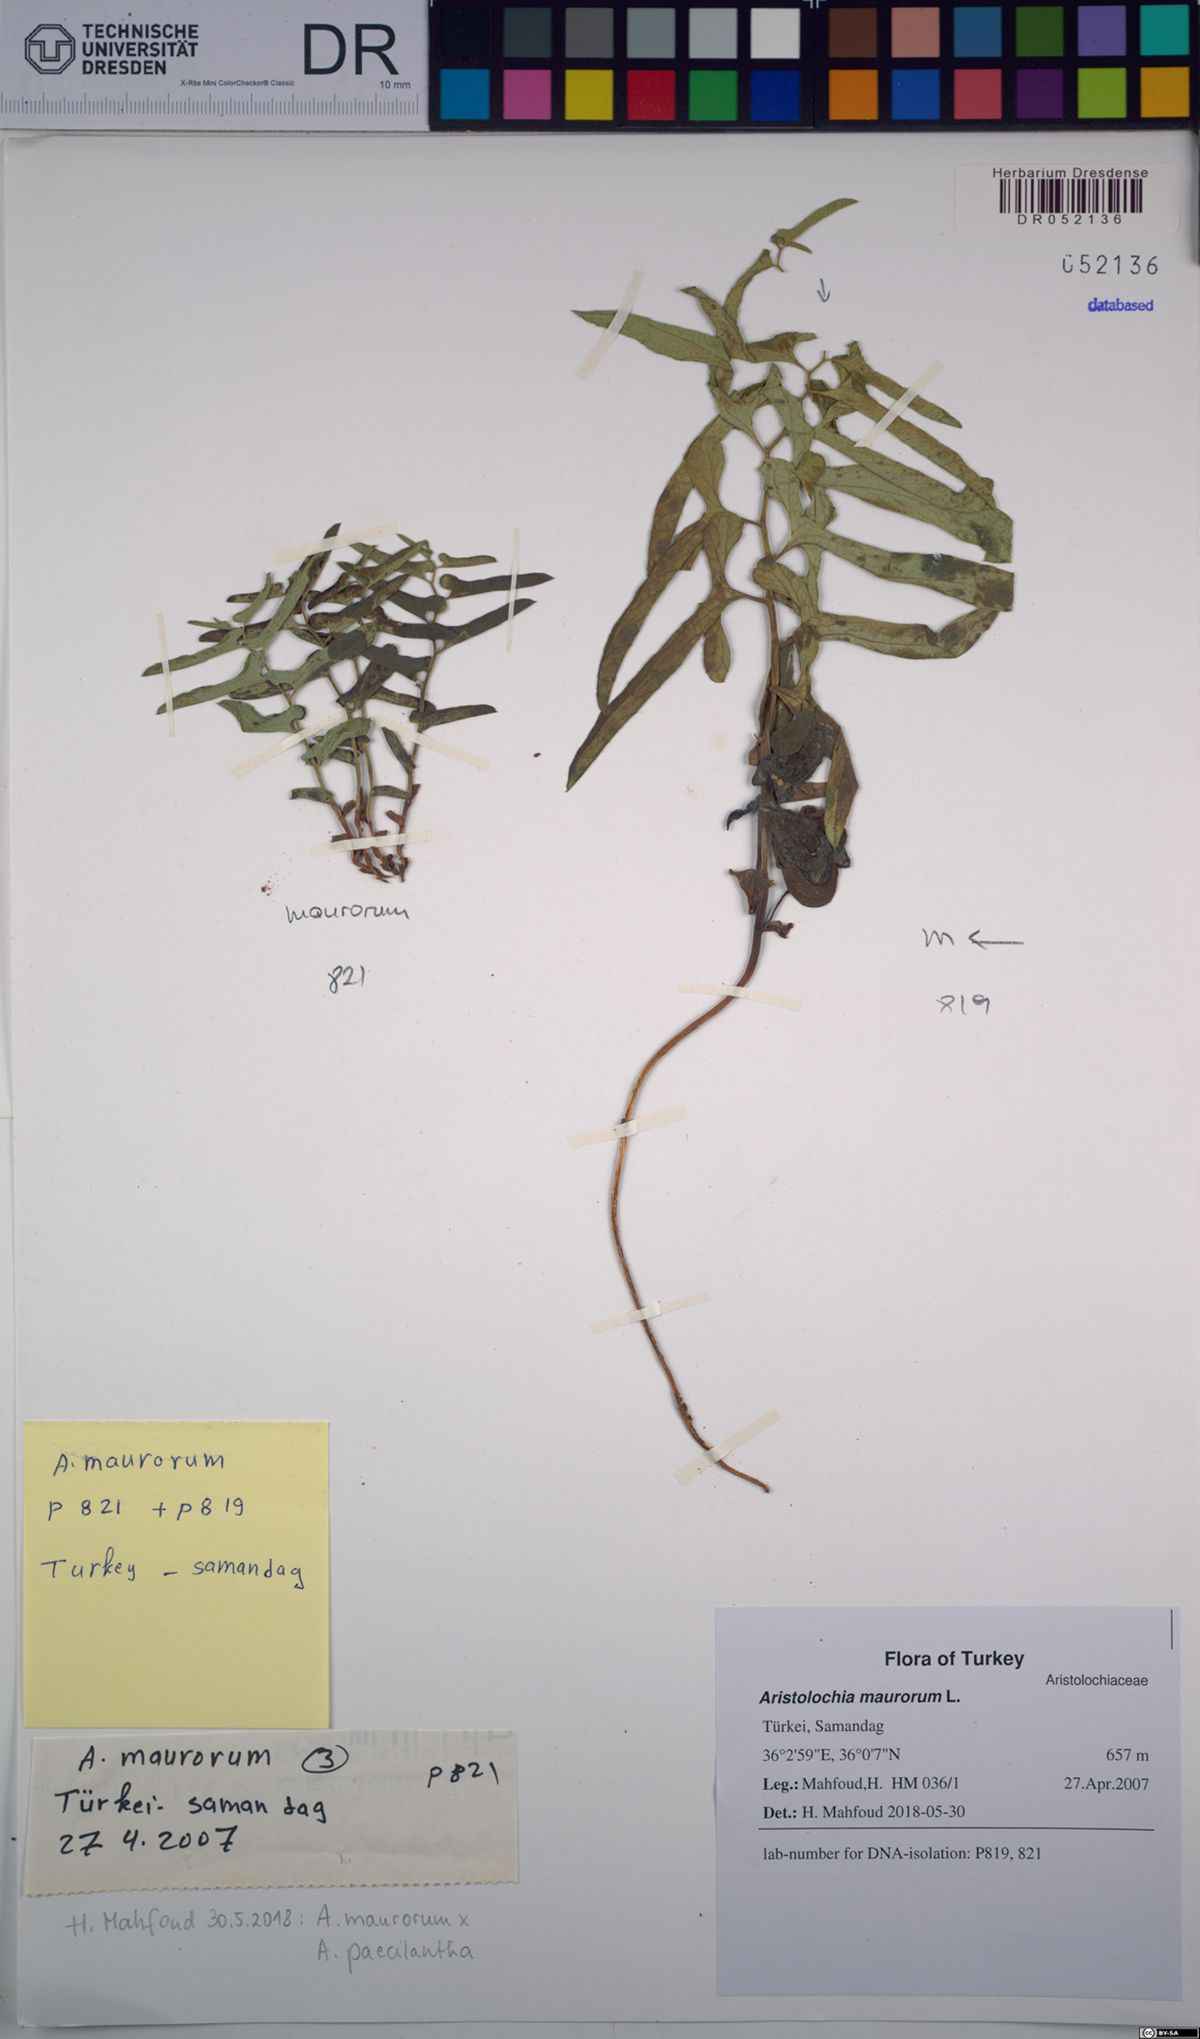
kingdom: Plantae
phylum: Tracheophyta
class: Magnoliopsida
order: Piperales
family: Aristolochiaceae
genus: Aristolochia
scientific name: Aristolochia maurorum
